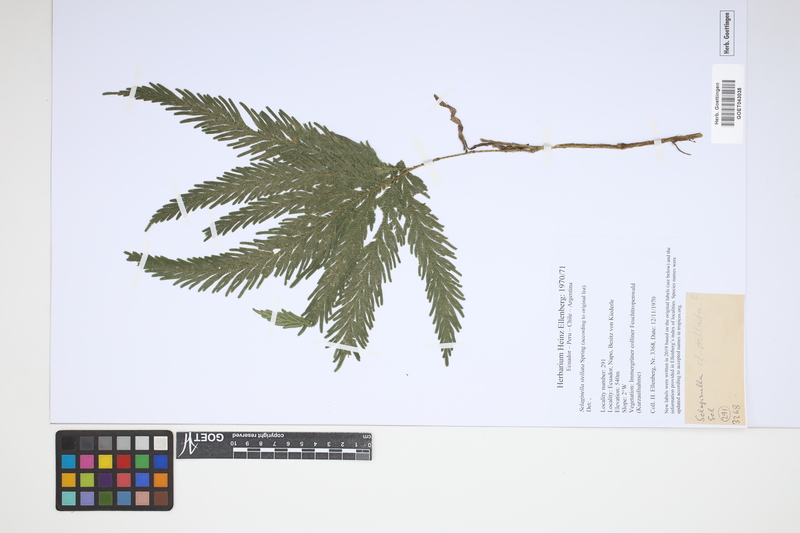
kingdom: Plantae
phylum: Tracheophyta
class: Lycopodiopsida
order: Selaginellales
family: Selaginellaceae
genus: Selaginella
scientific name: Selaginella stellata
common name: Starry spikemoss
